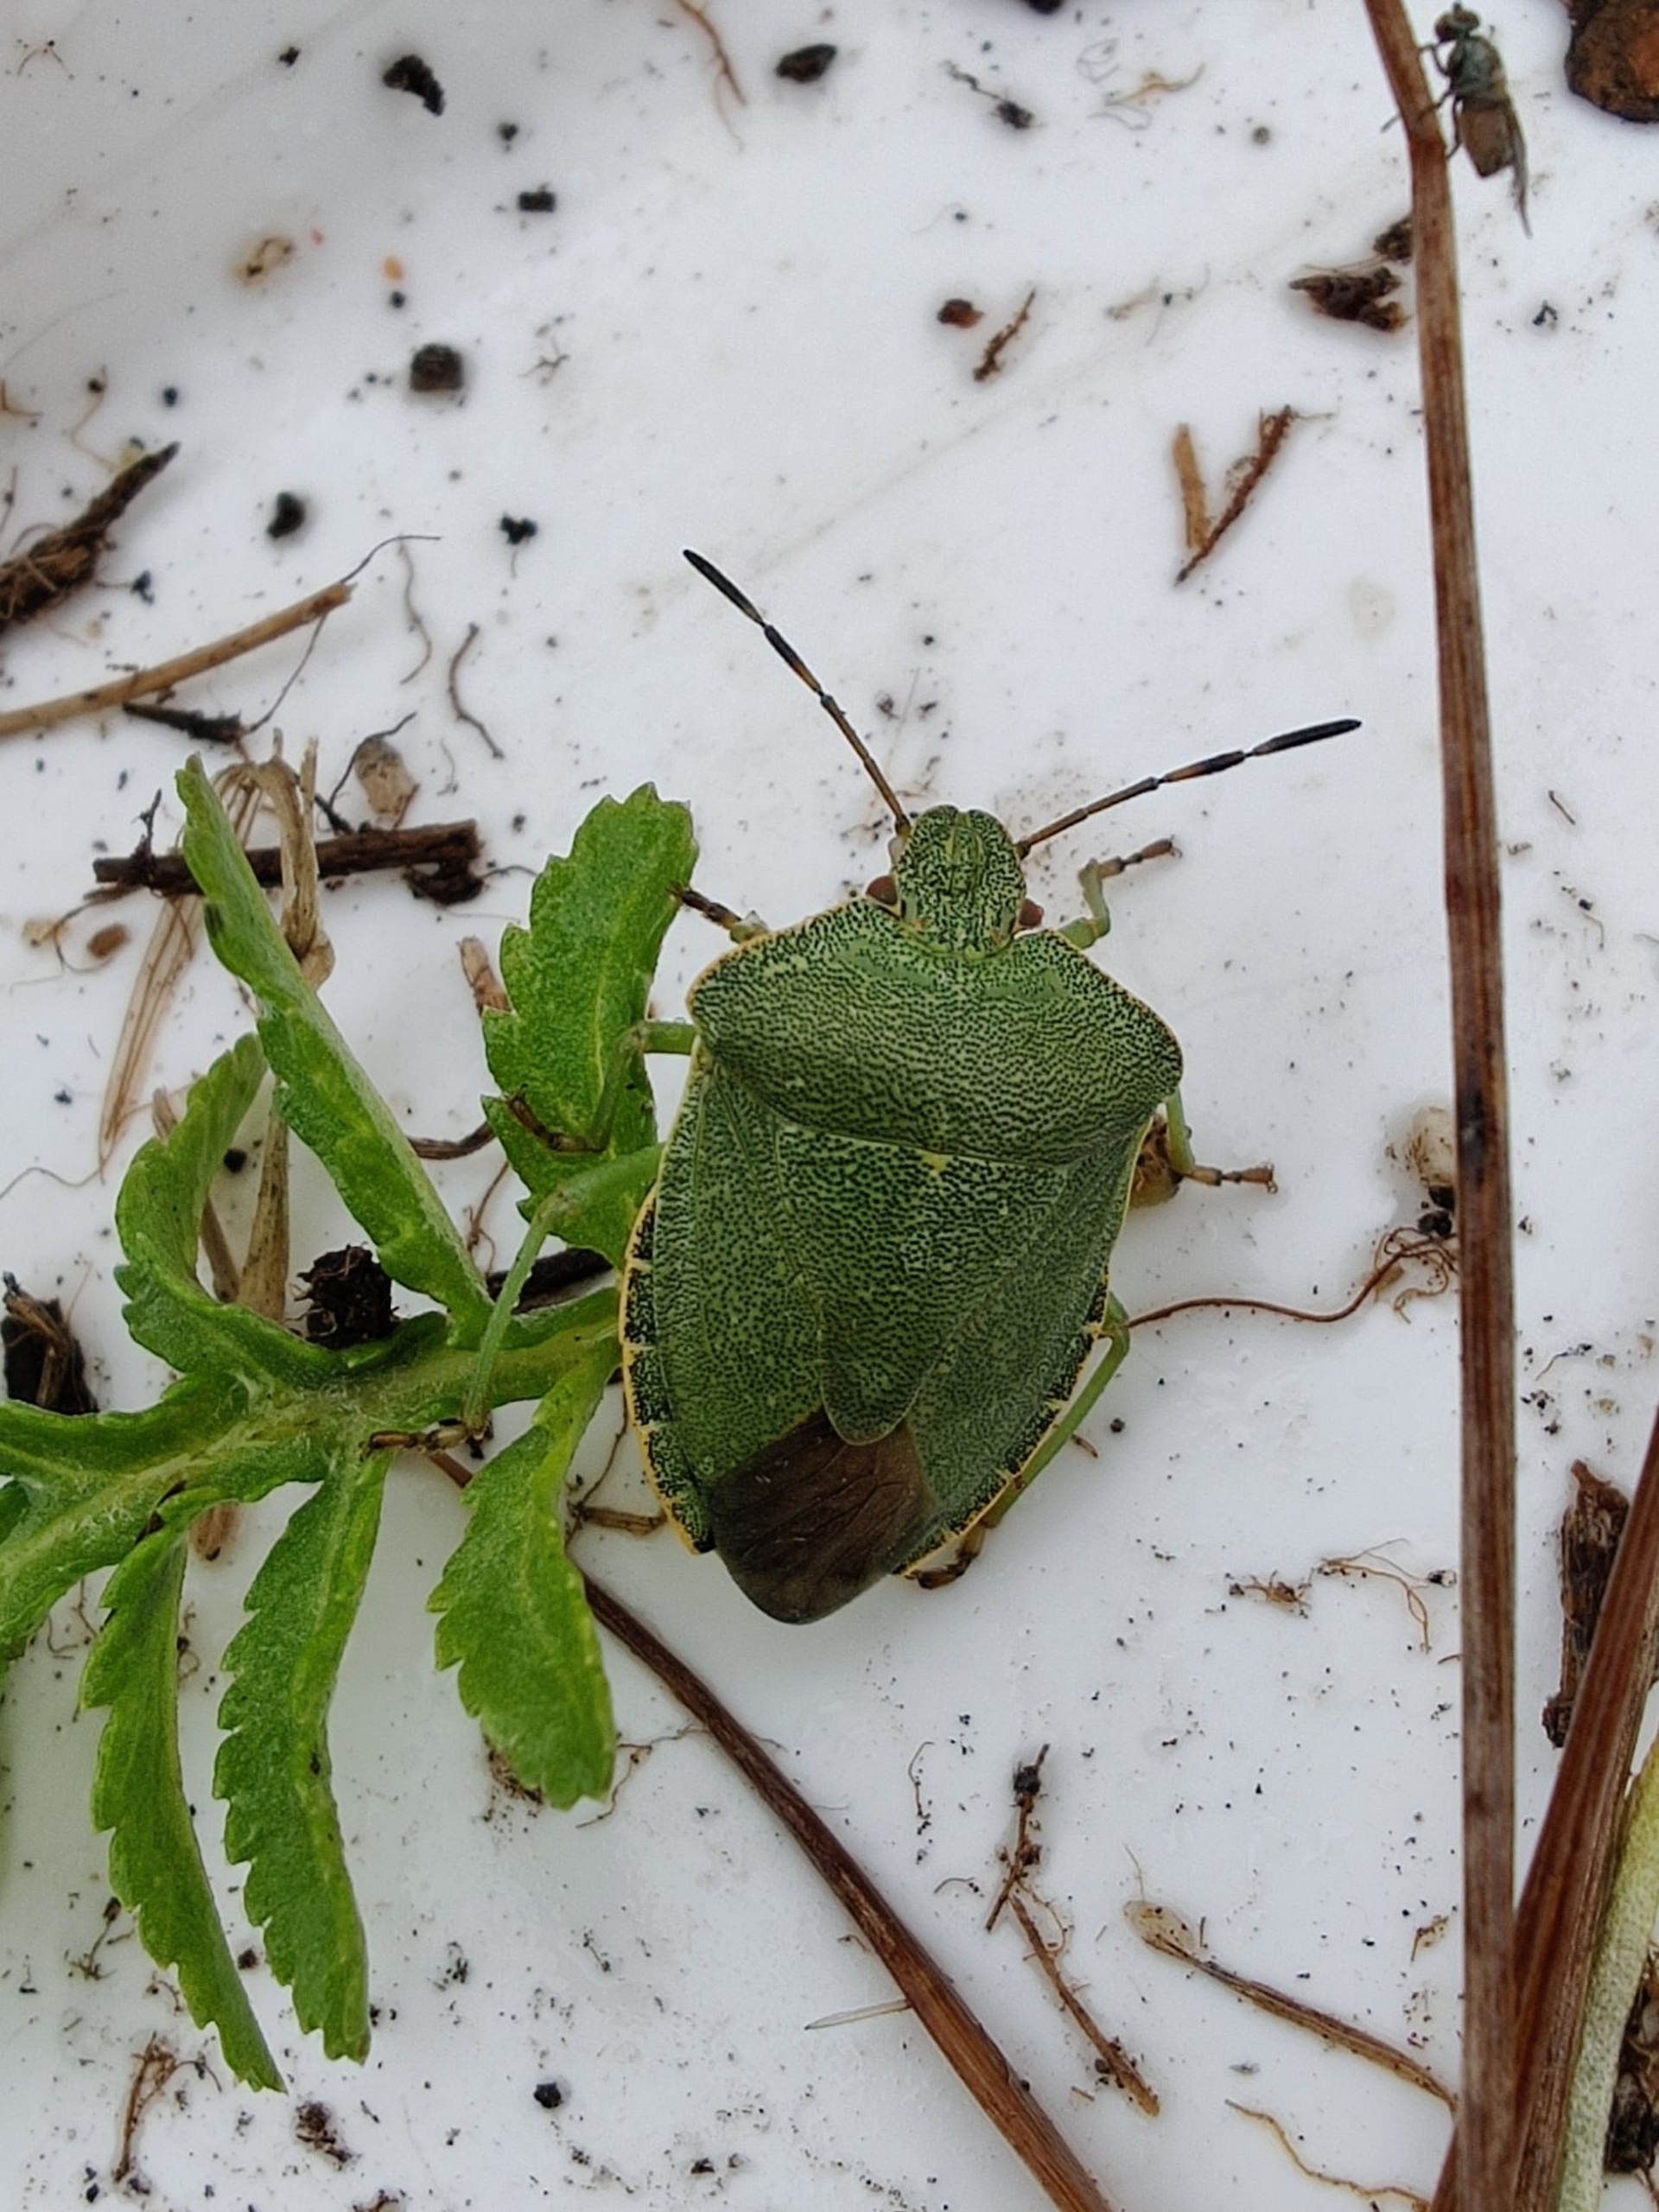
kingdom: Animalia
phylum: Arthropoda
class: Insecta
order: Hemiptera
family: Pentatomidae
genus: Palomena
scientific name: Palomena prasina
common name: Grøn bredtæge
